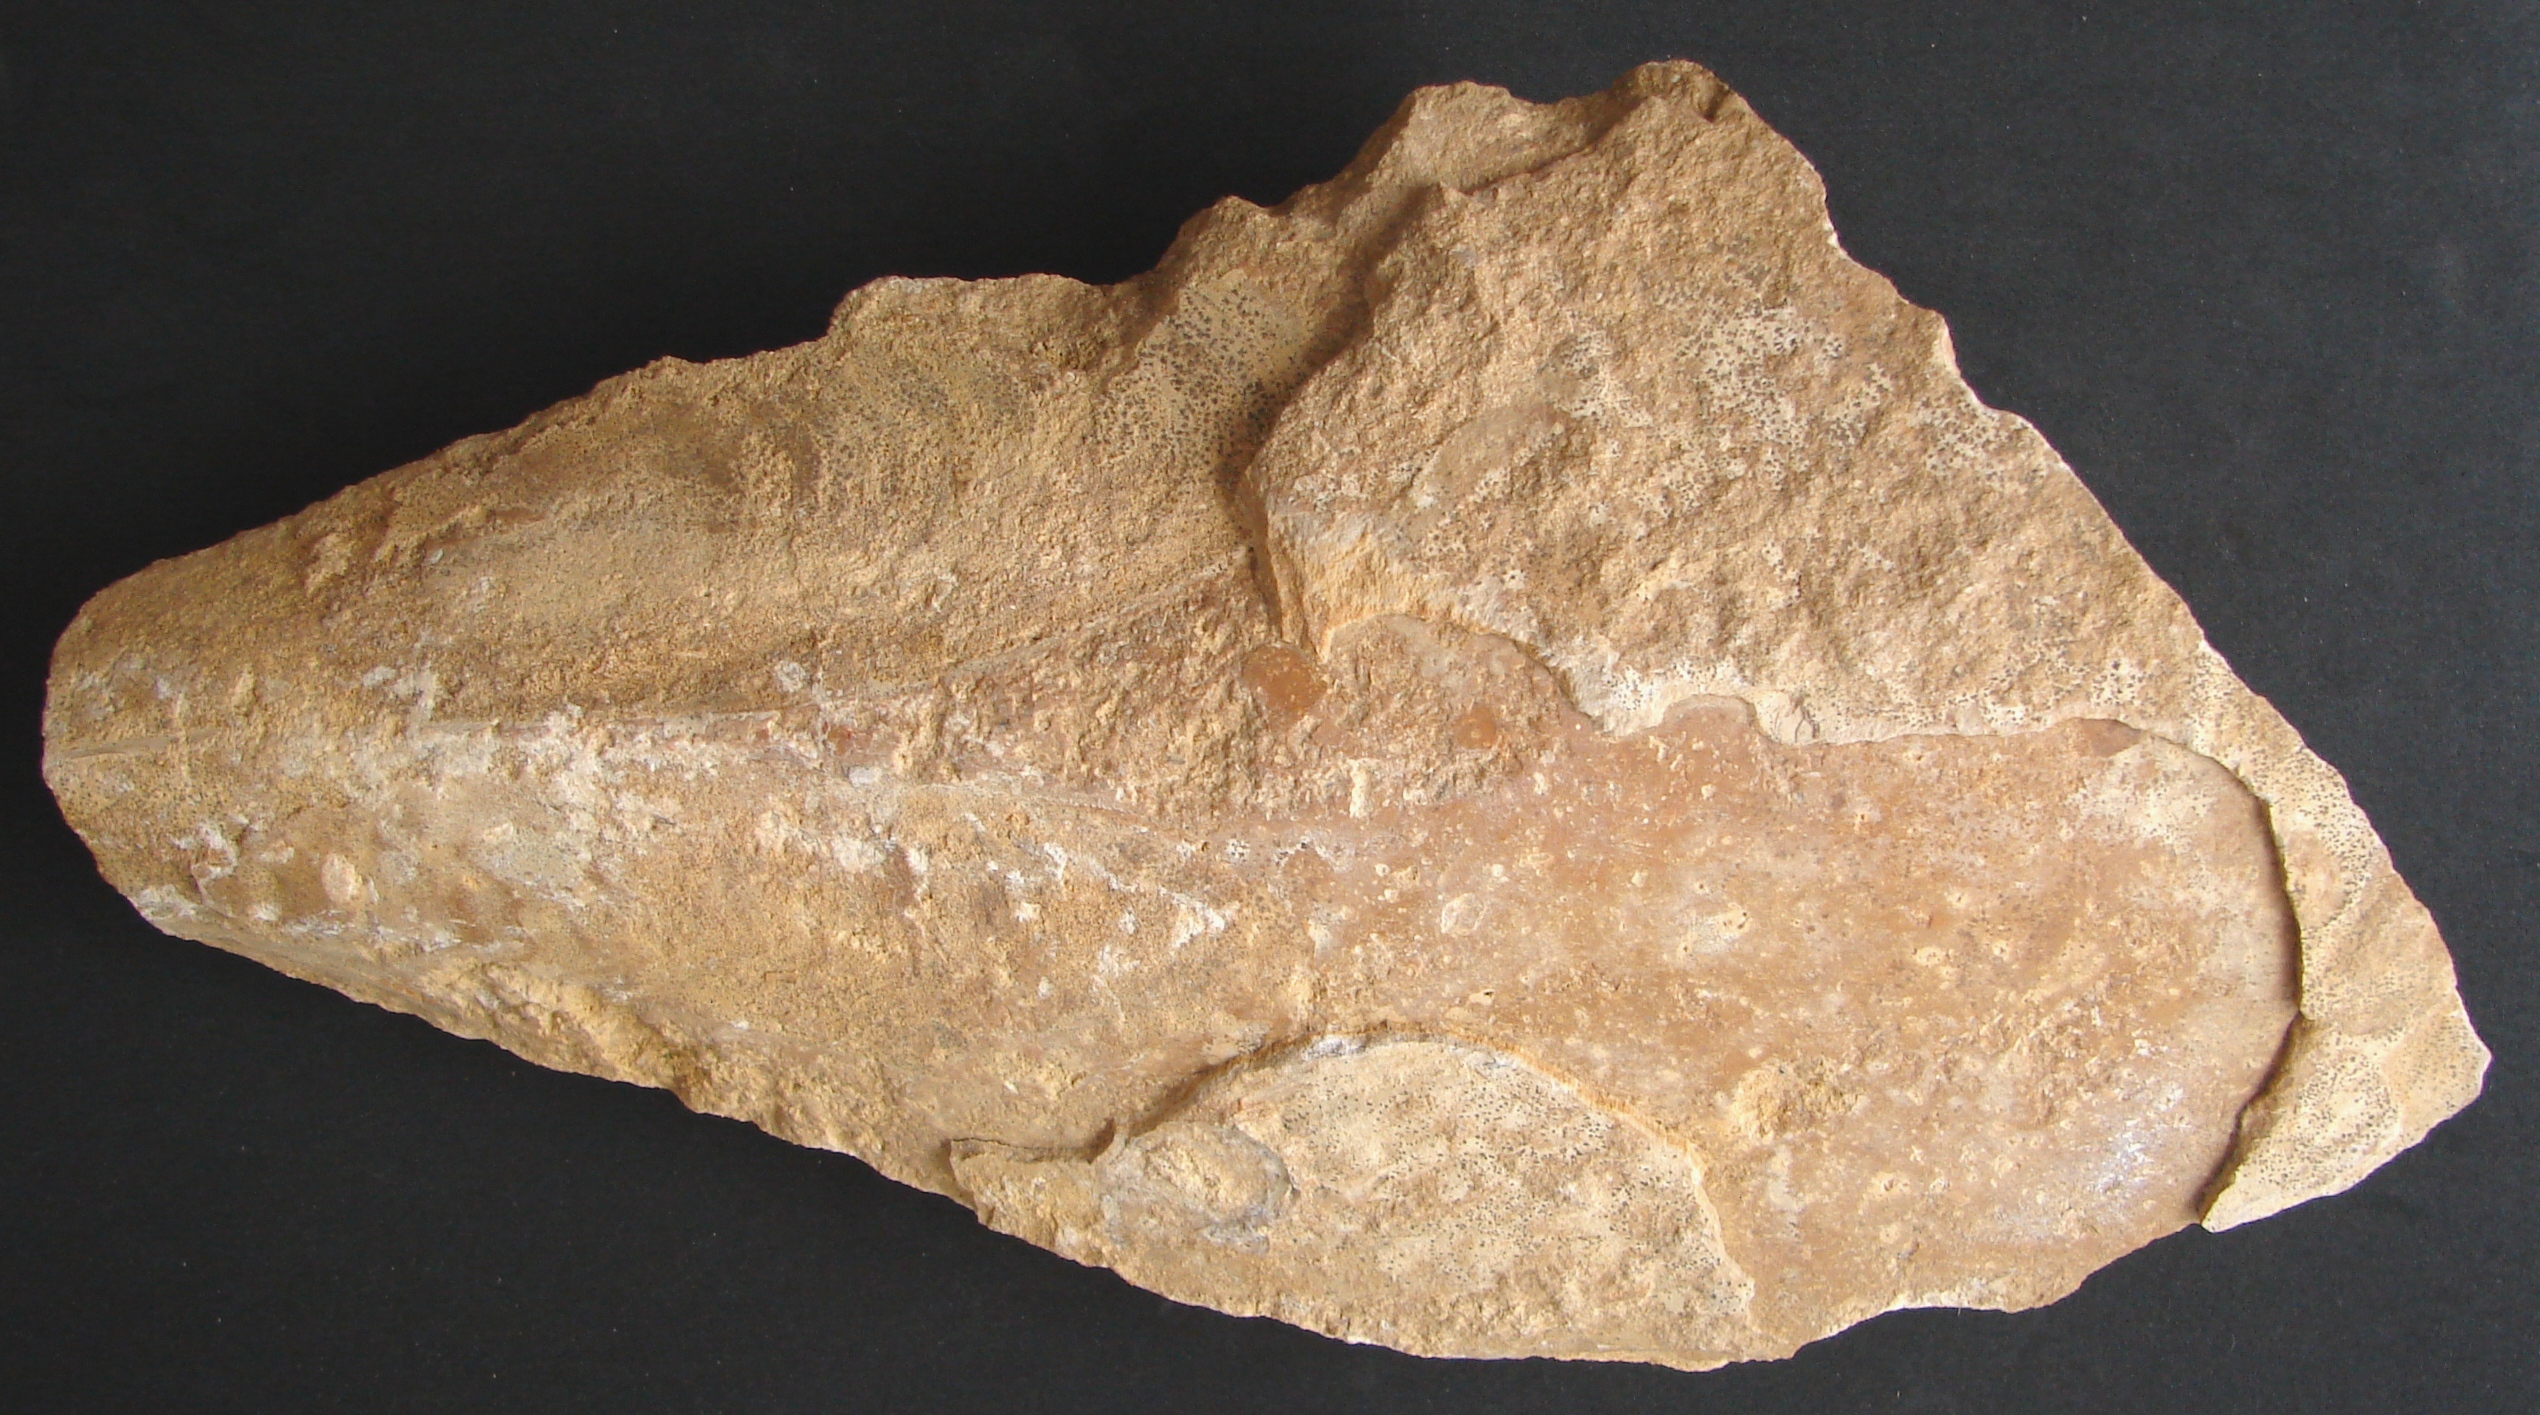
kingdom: Animalia
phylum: Mollusca
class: Bivalvia
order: Ostreida
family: Pinnidae
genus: Pinna
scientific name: Pinna
